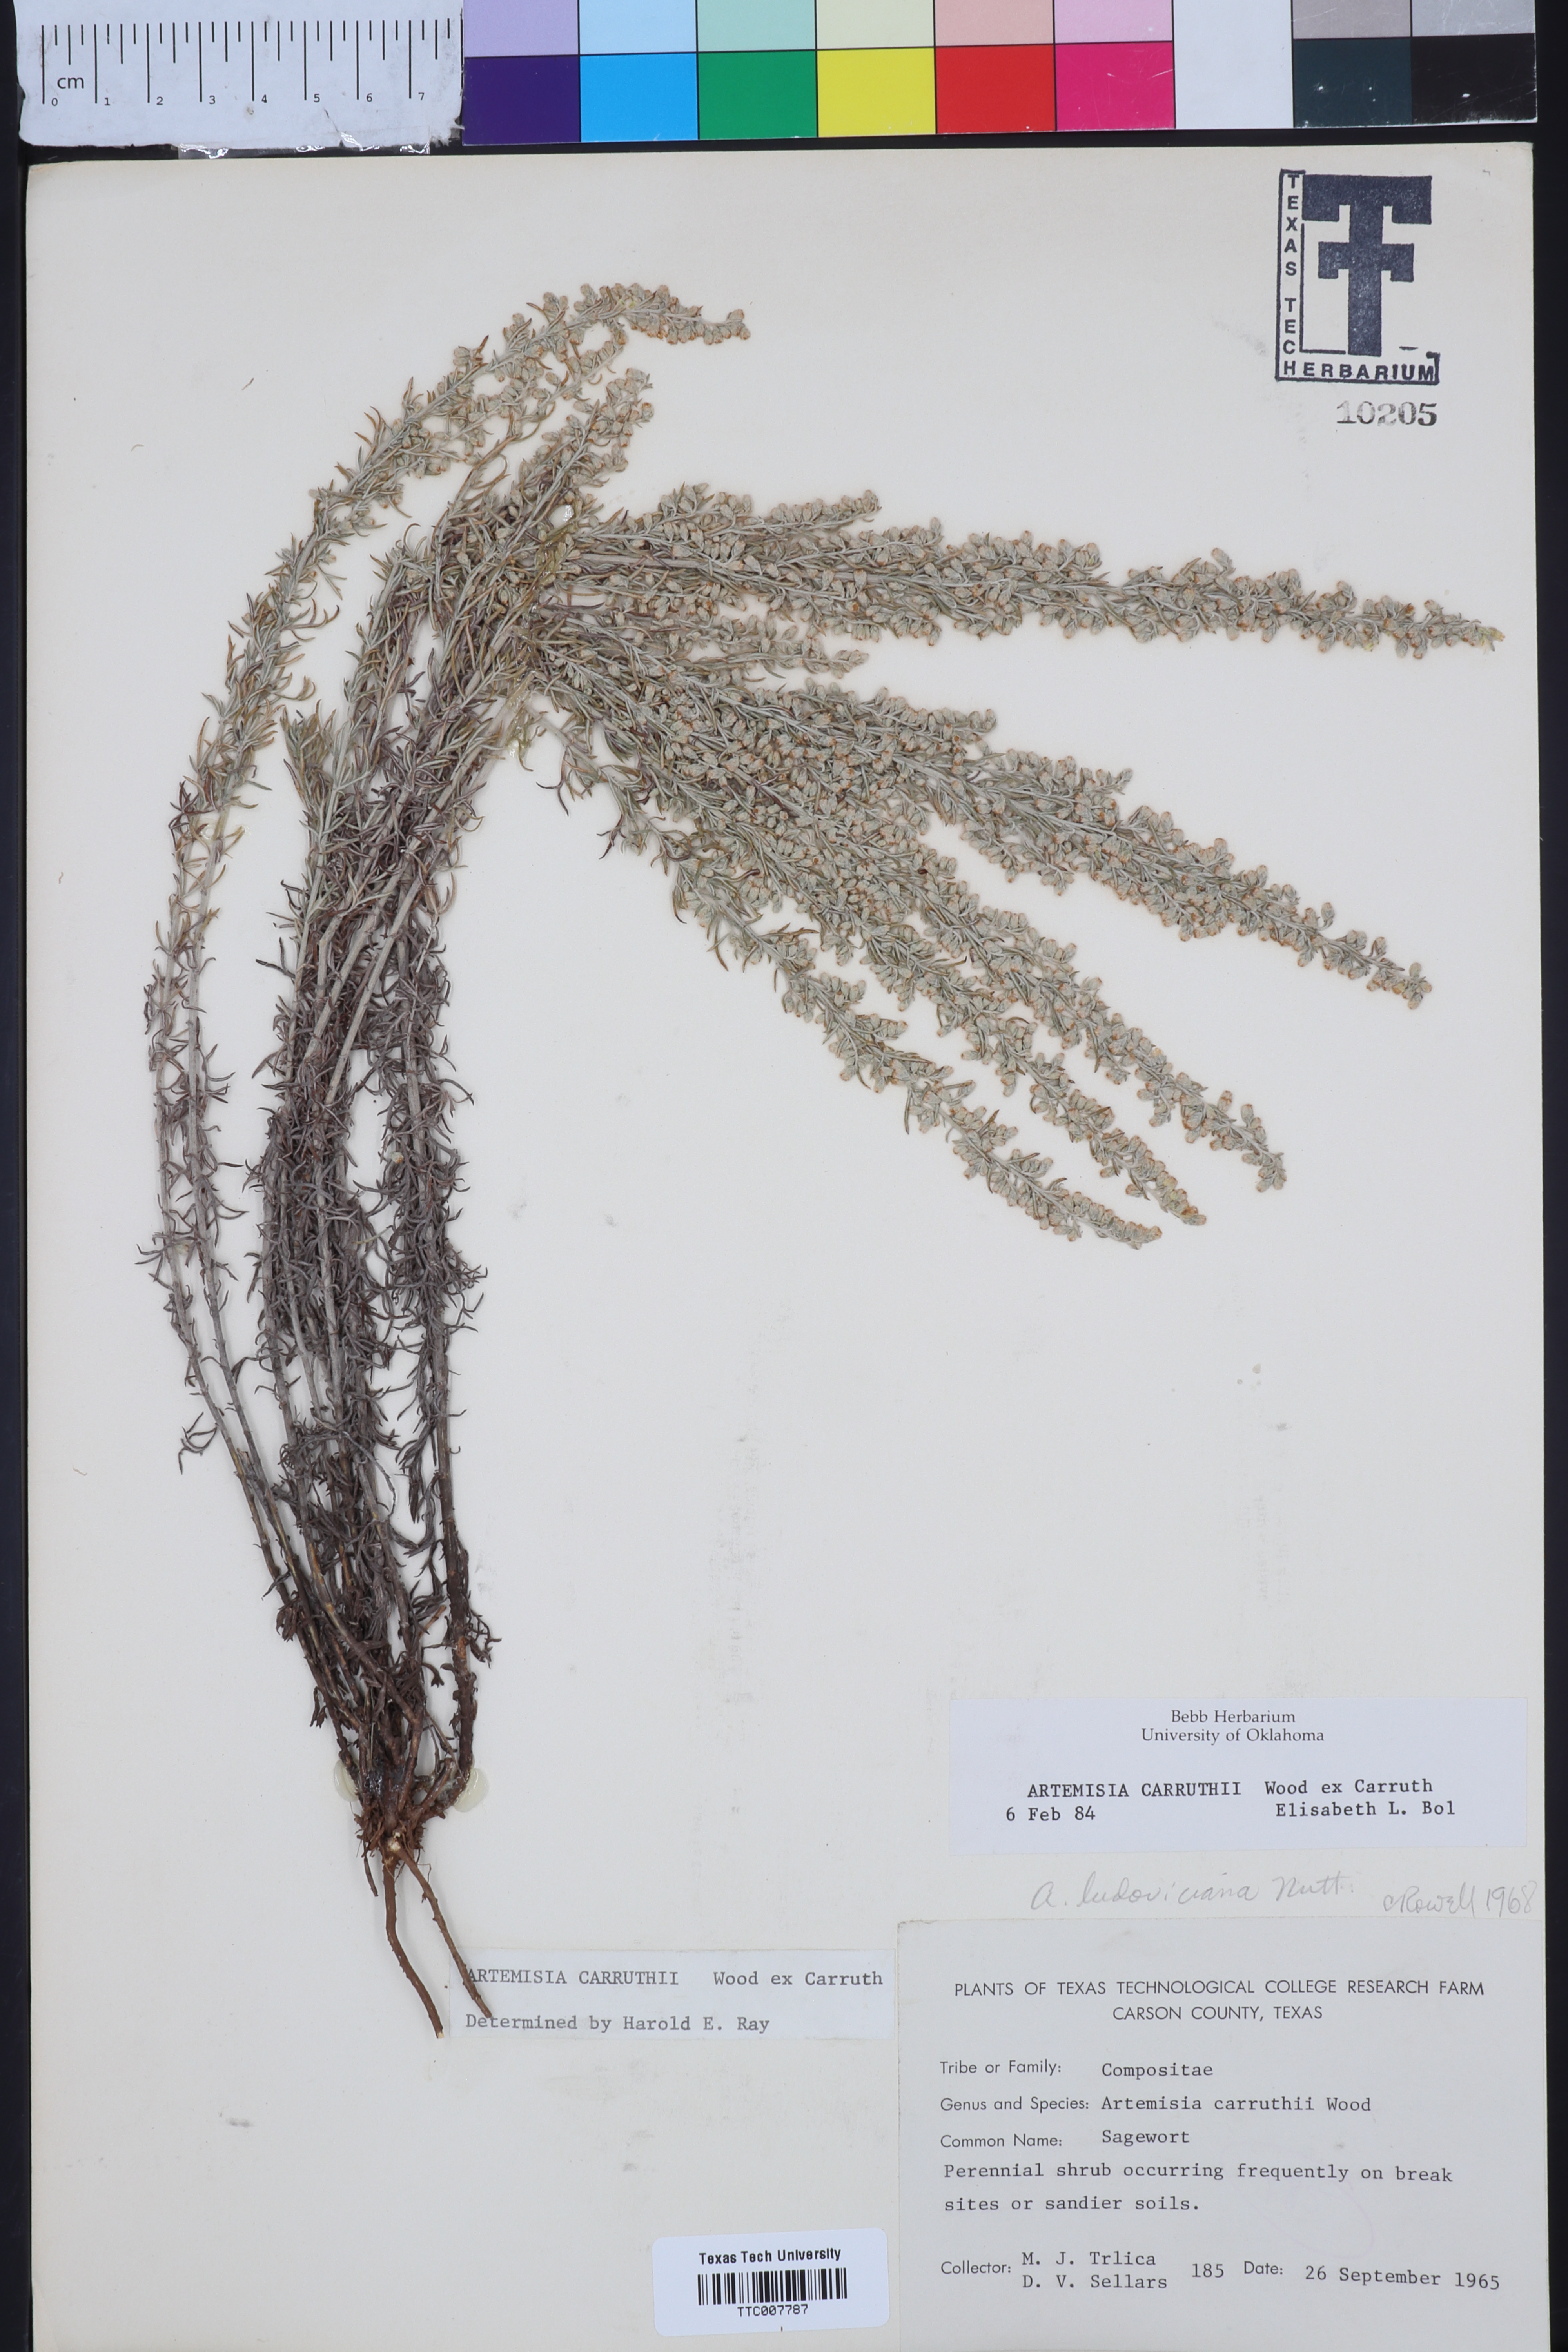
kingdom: Plantae
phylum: Tracheophyta
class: Magnoliopsida
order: Asterales
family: Asteraceae
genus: Artemisia
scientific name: Artemisia carruthii
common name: Carruth wormwood
